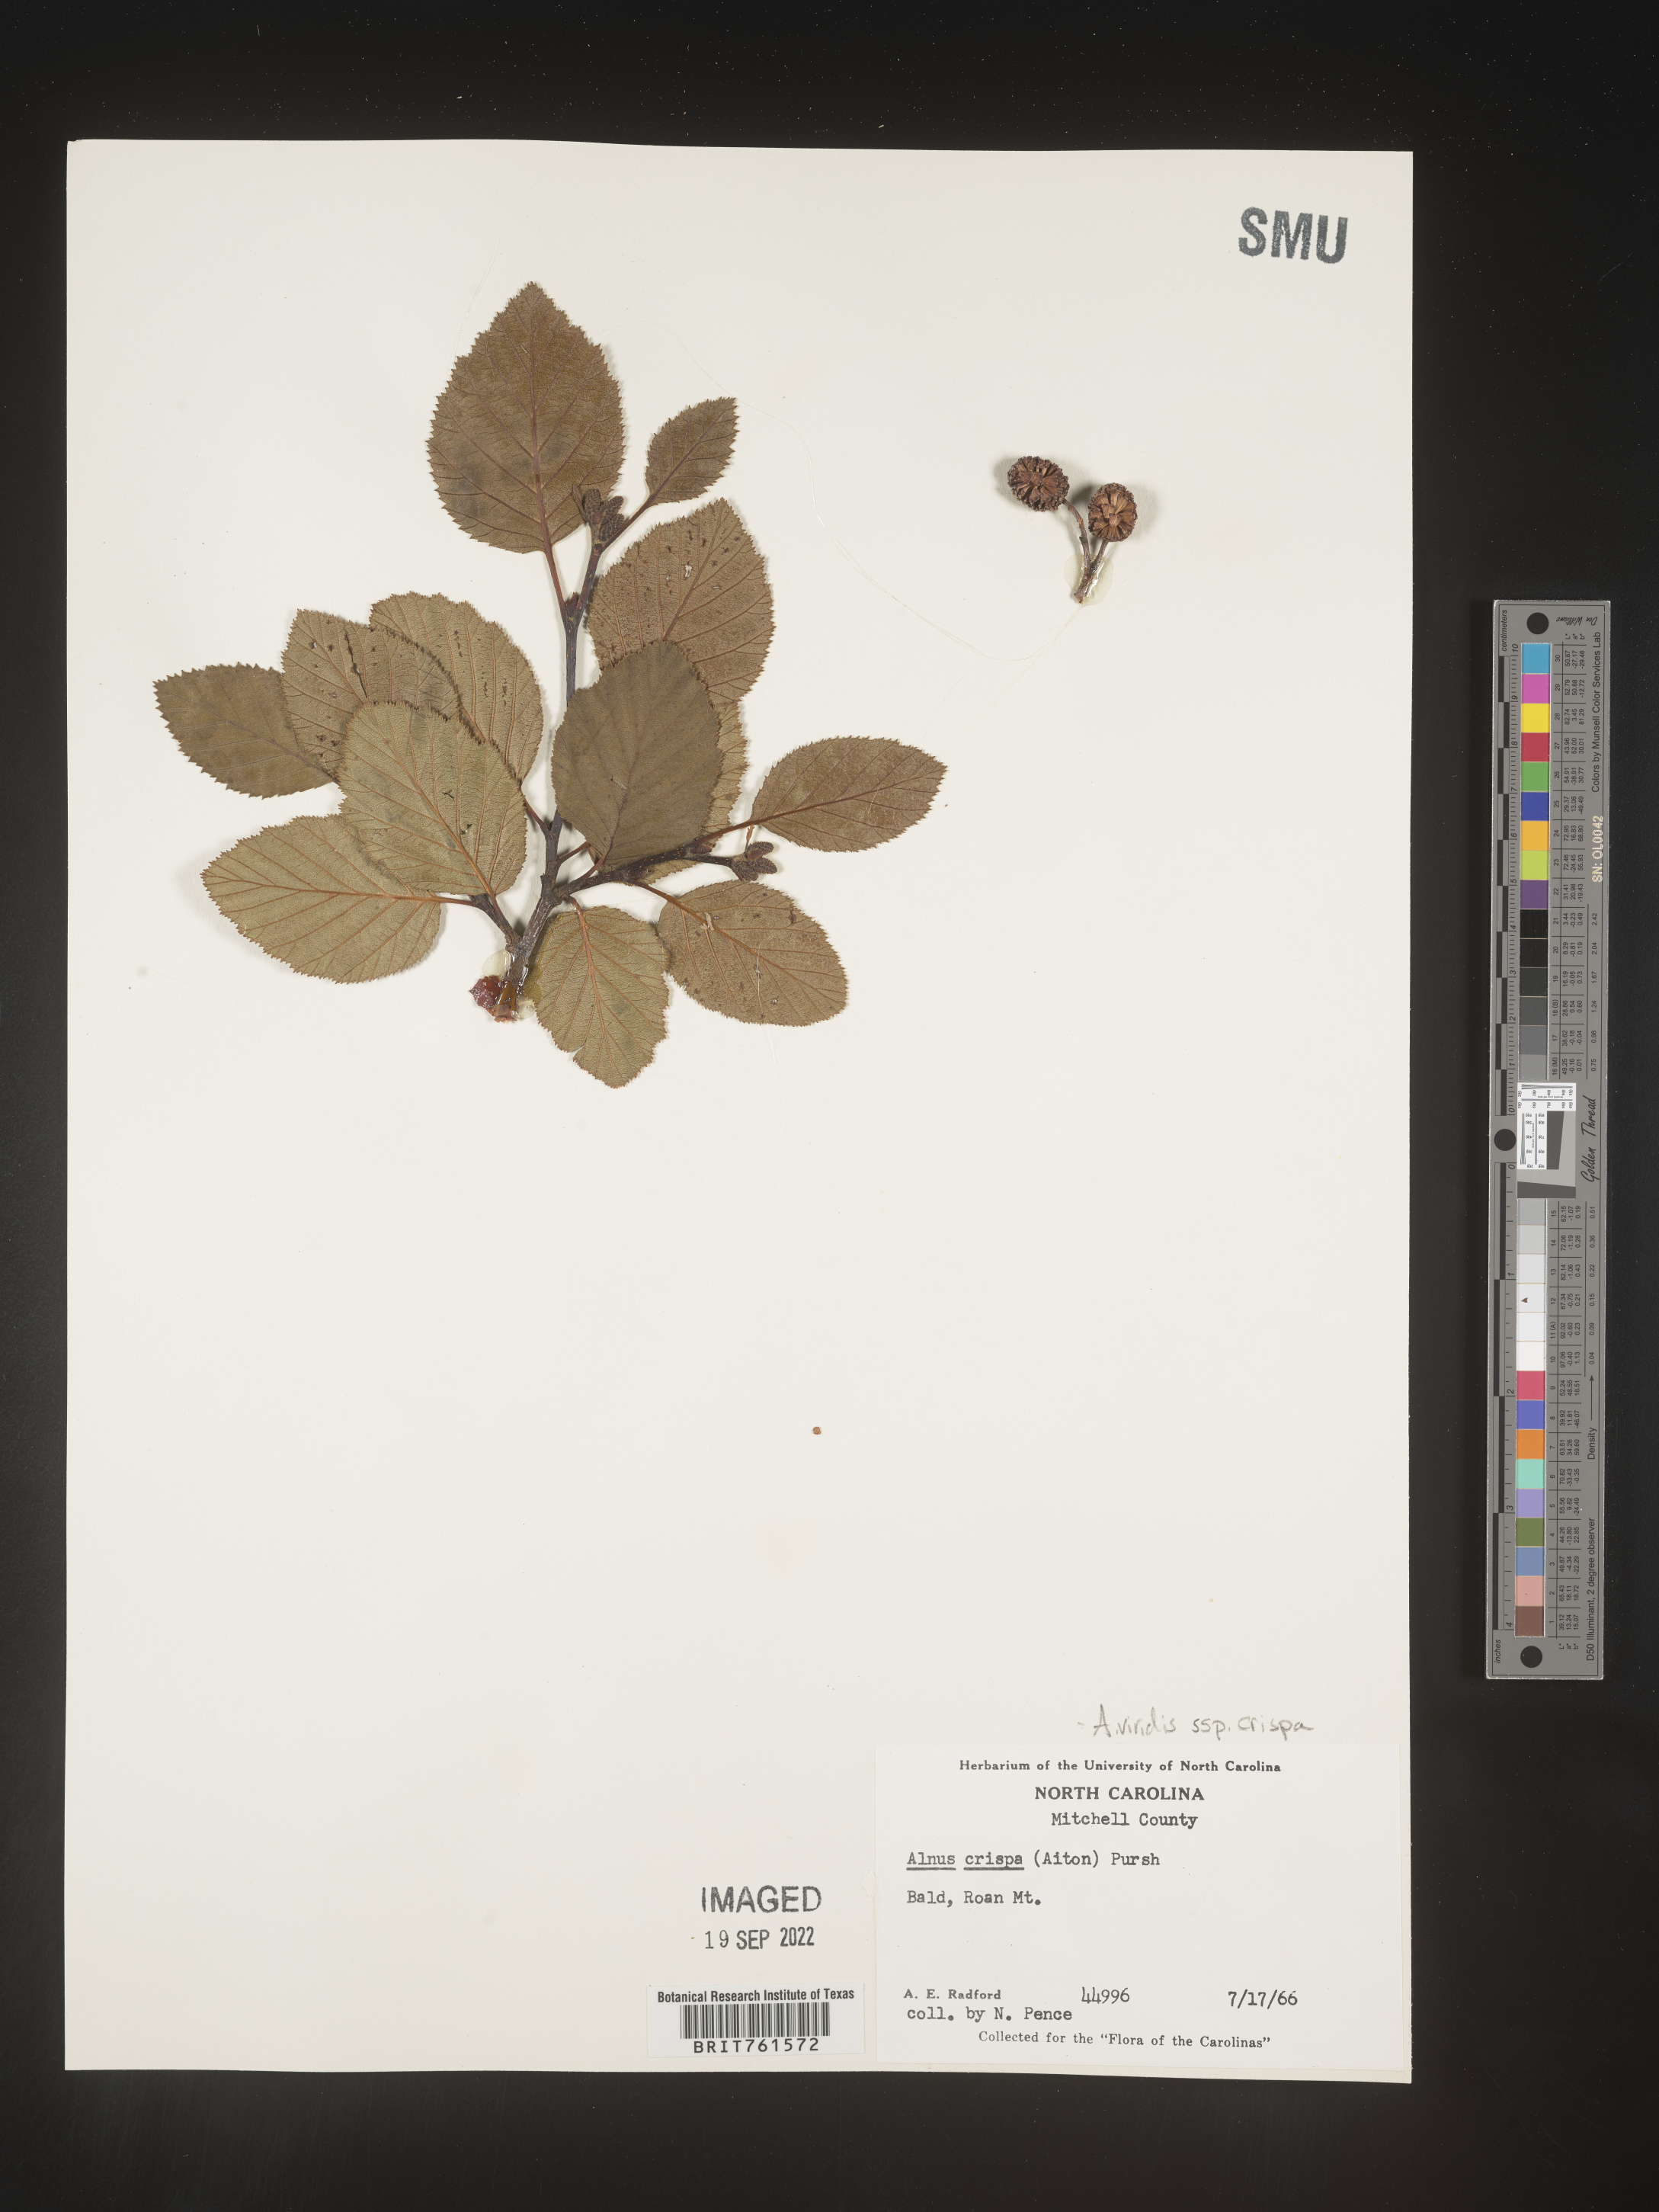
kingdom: Plantae
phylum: Tracheophyta
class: Magnoliopsida
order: Fagales
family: Betulaceae
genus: Alnus
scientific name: Alnus alnobetula
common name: Green alder
